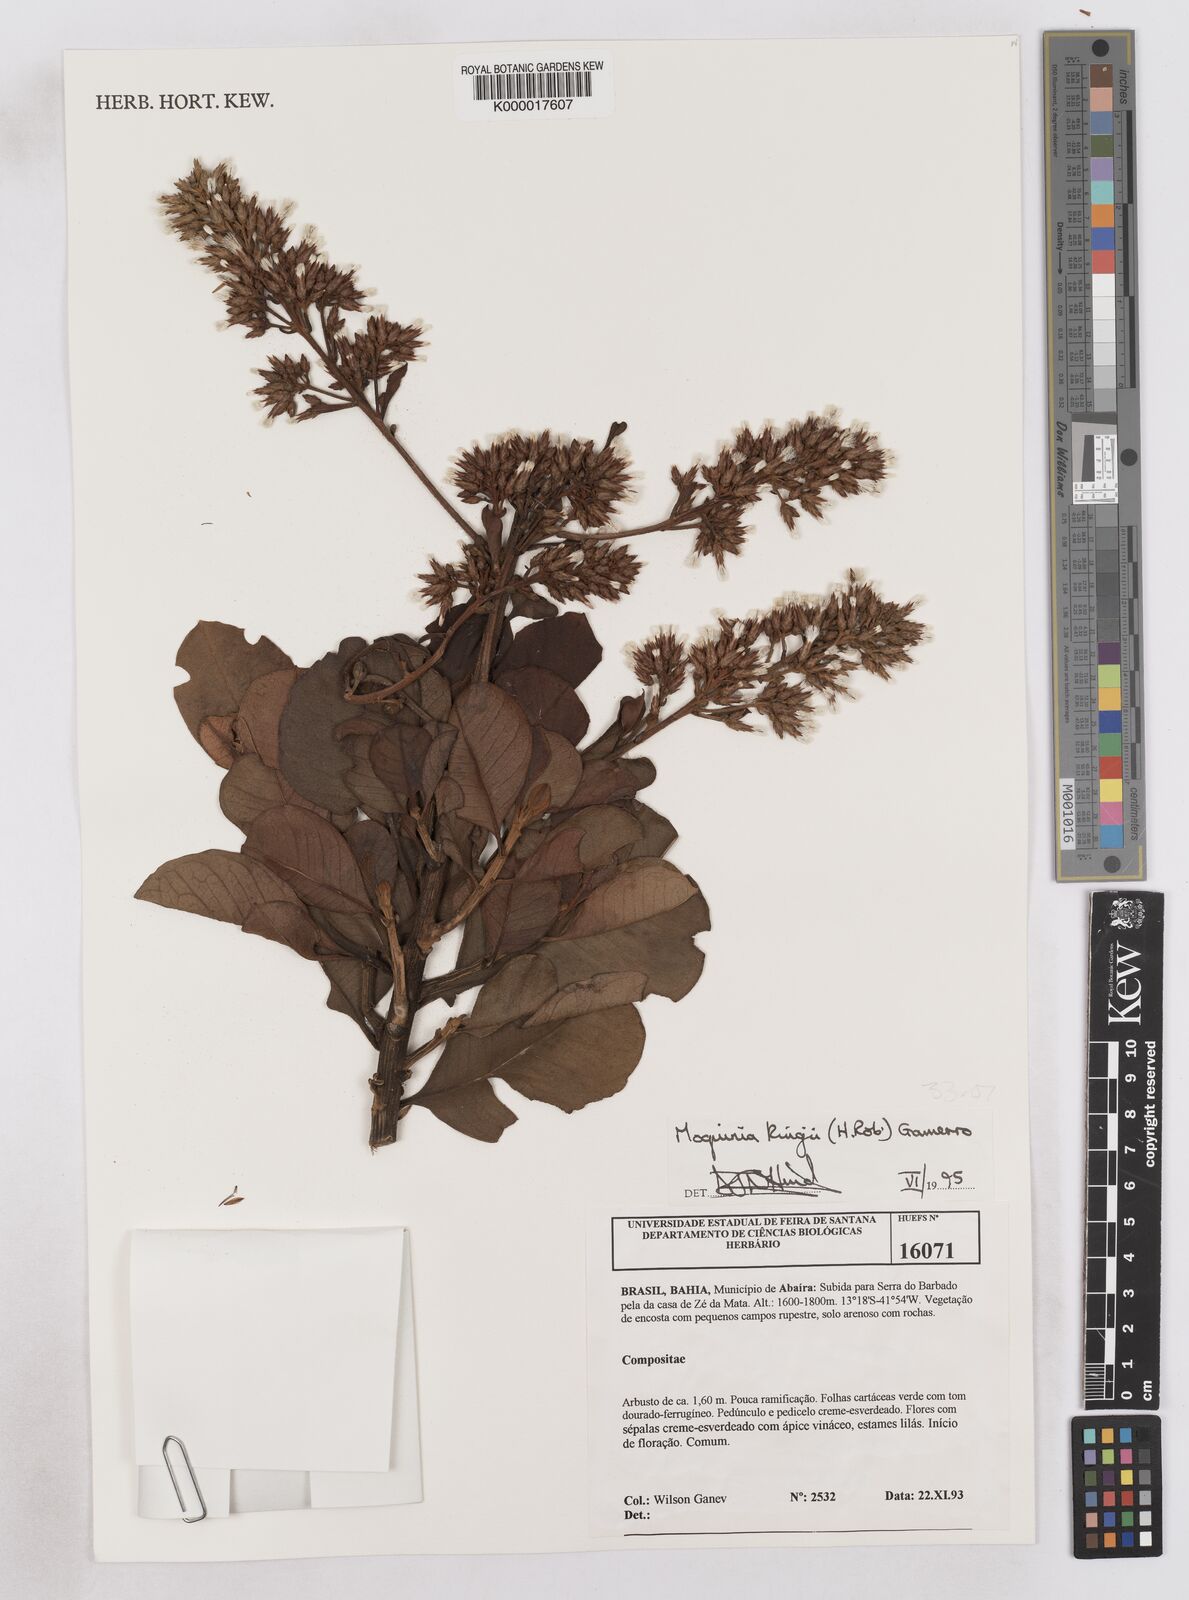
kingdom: Plantae
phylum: Tracheophyta
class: Magnoliopsida
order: Asterales
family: Asteraceae
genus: Pseudostifftia
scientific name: Pseudostifftia kingii
